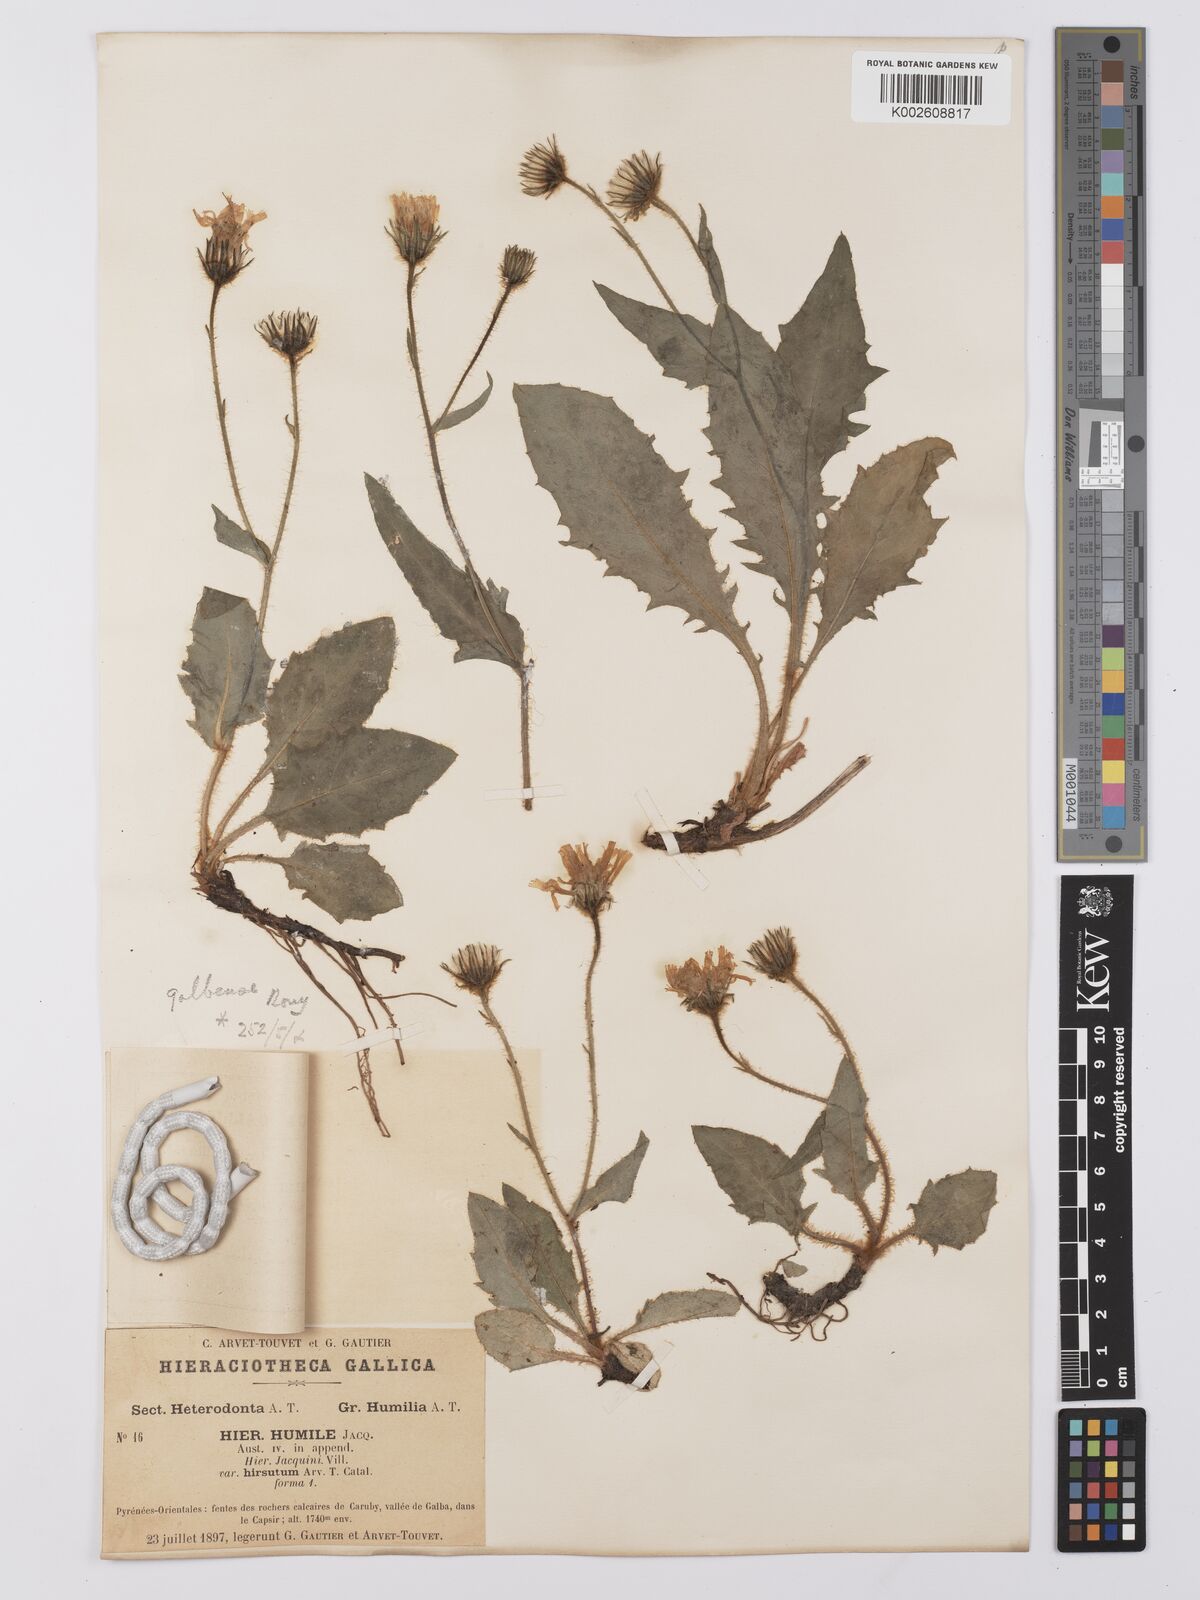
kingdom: Plantae
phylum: Tracheophyta
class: Magnoliopsida
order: Asterales
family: Asteraceae
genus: Hieracium
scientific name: Hieracium humile
